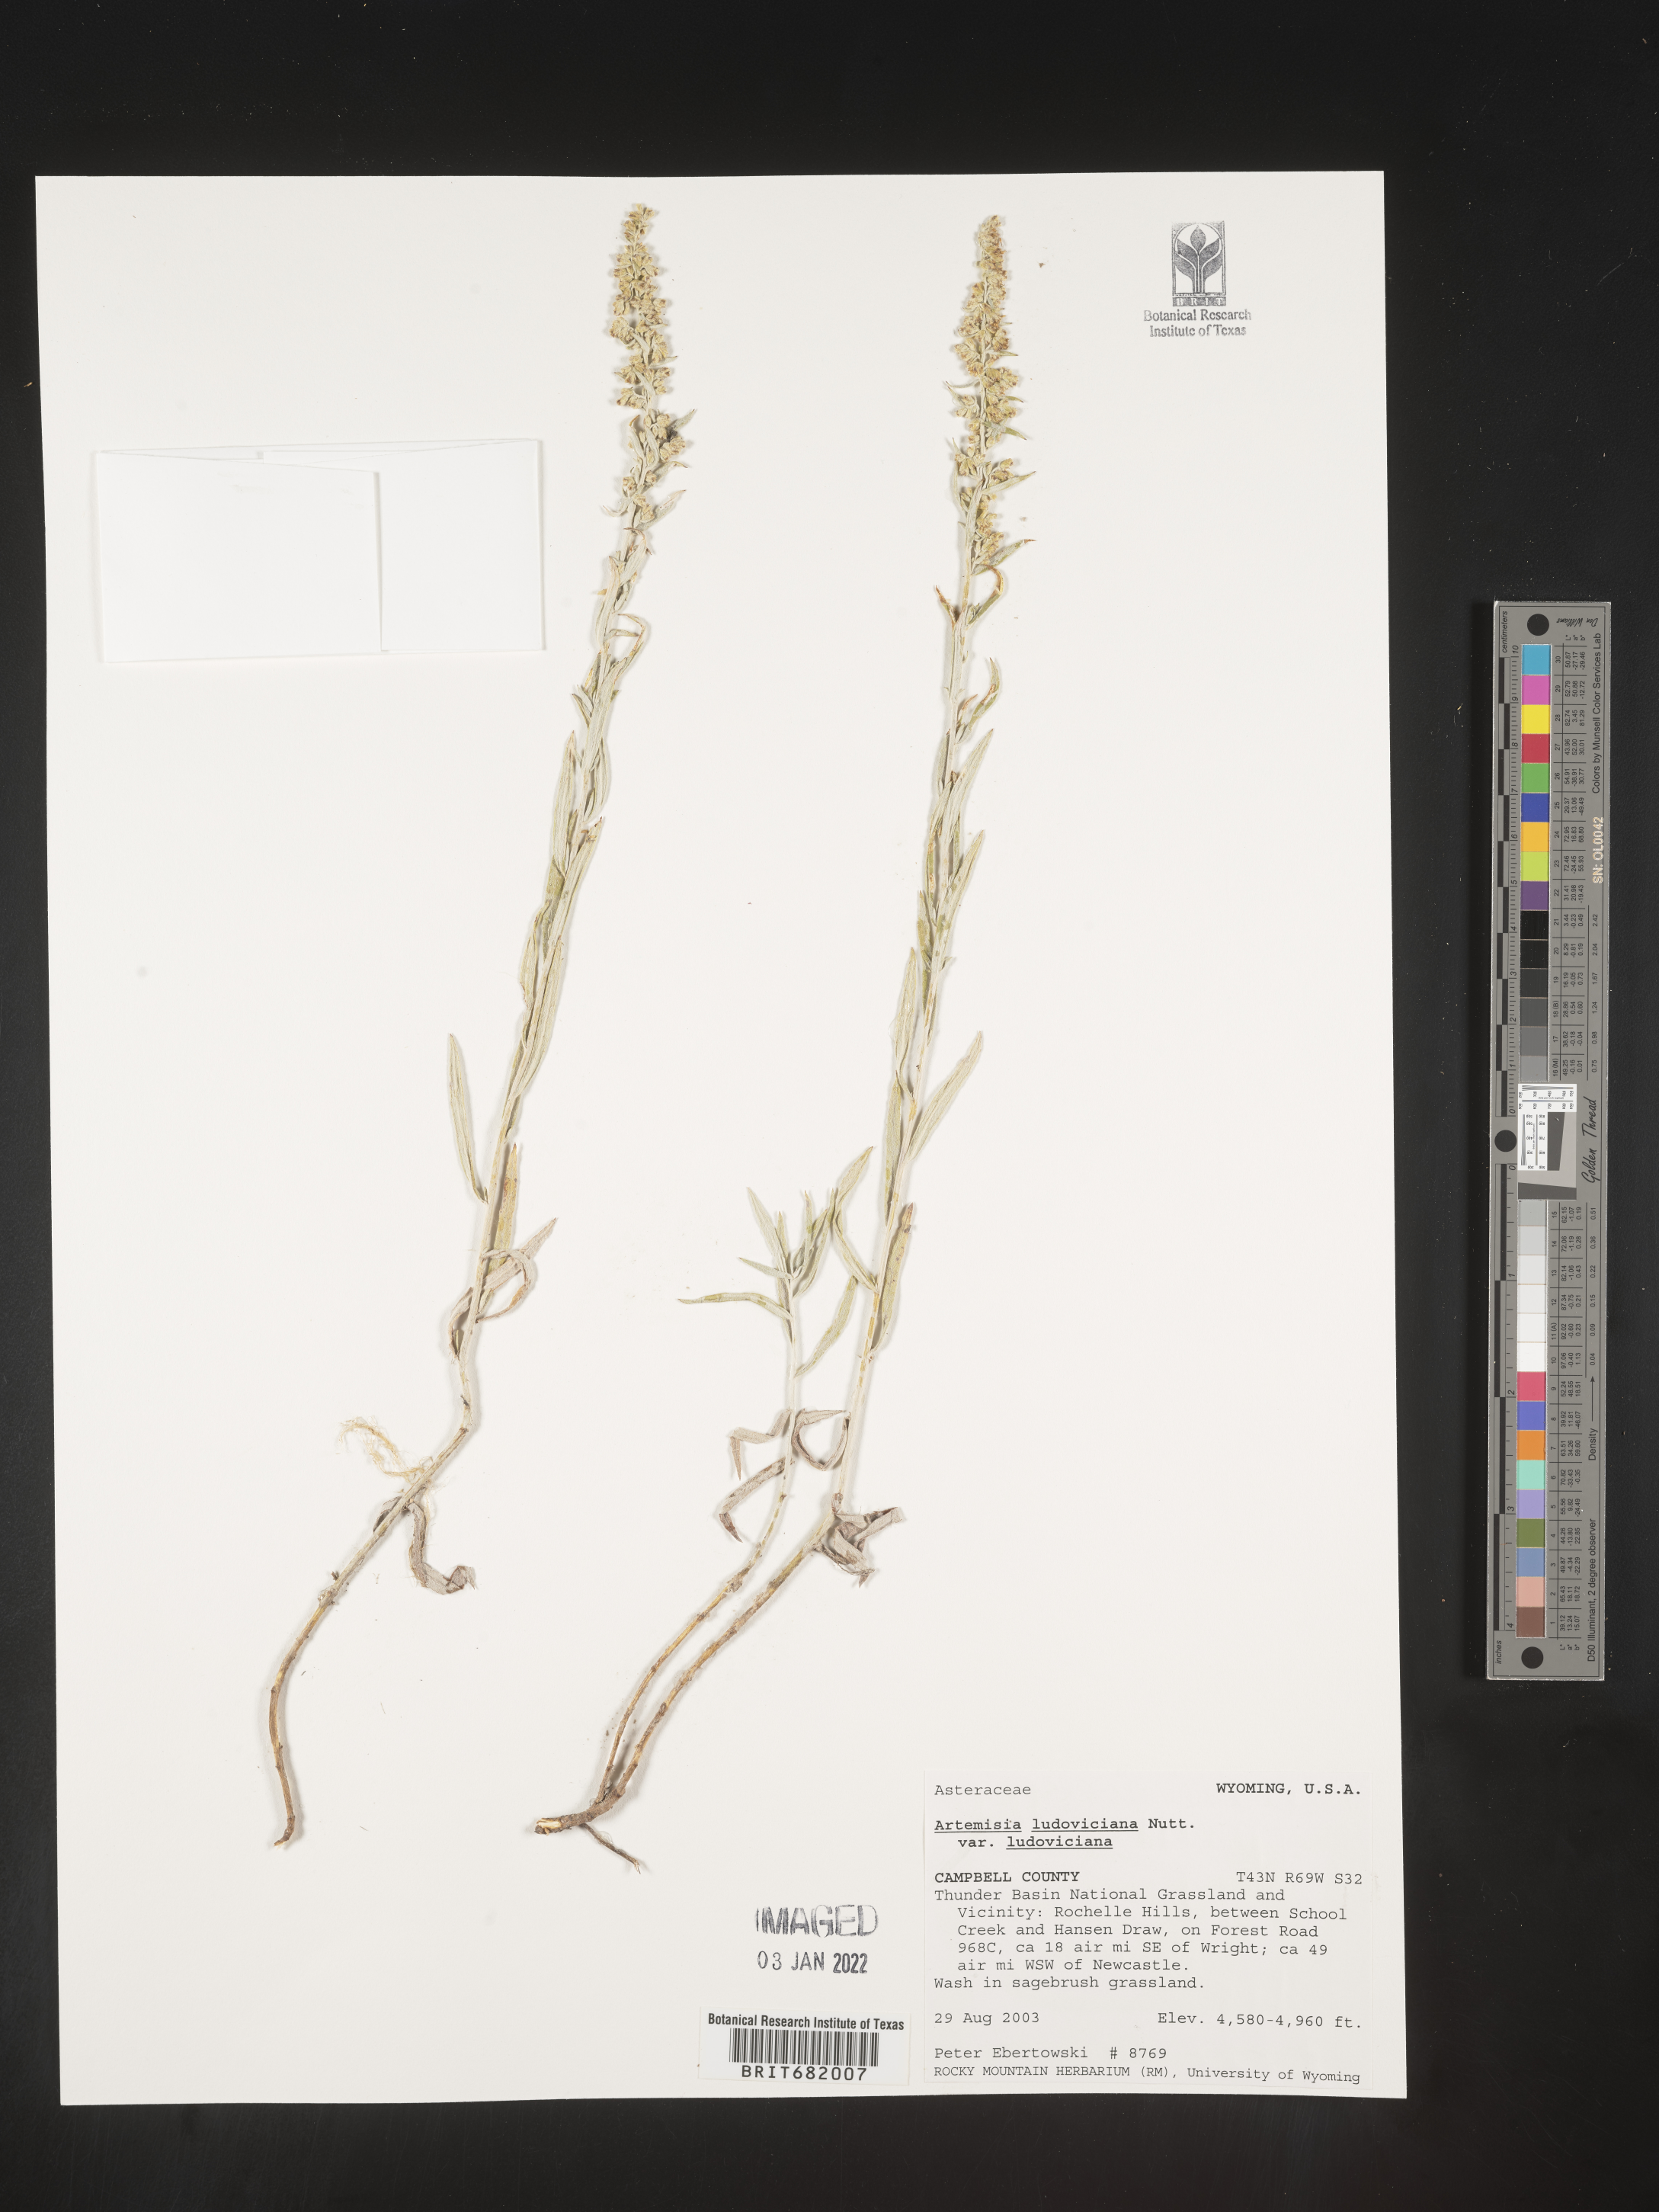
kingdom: Plantae
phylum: Tracheophyta
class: Magnoliopsida
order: Asterales
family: Asteraceae
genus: Artemisia
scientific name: Artemisia ludoviciana
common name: Western mugwort
